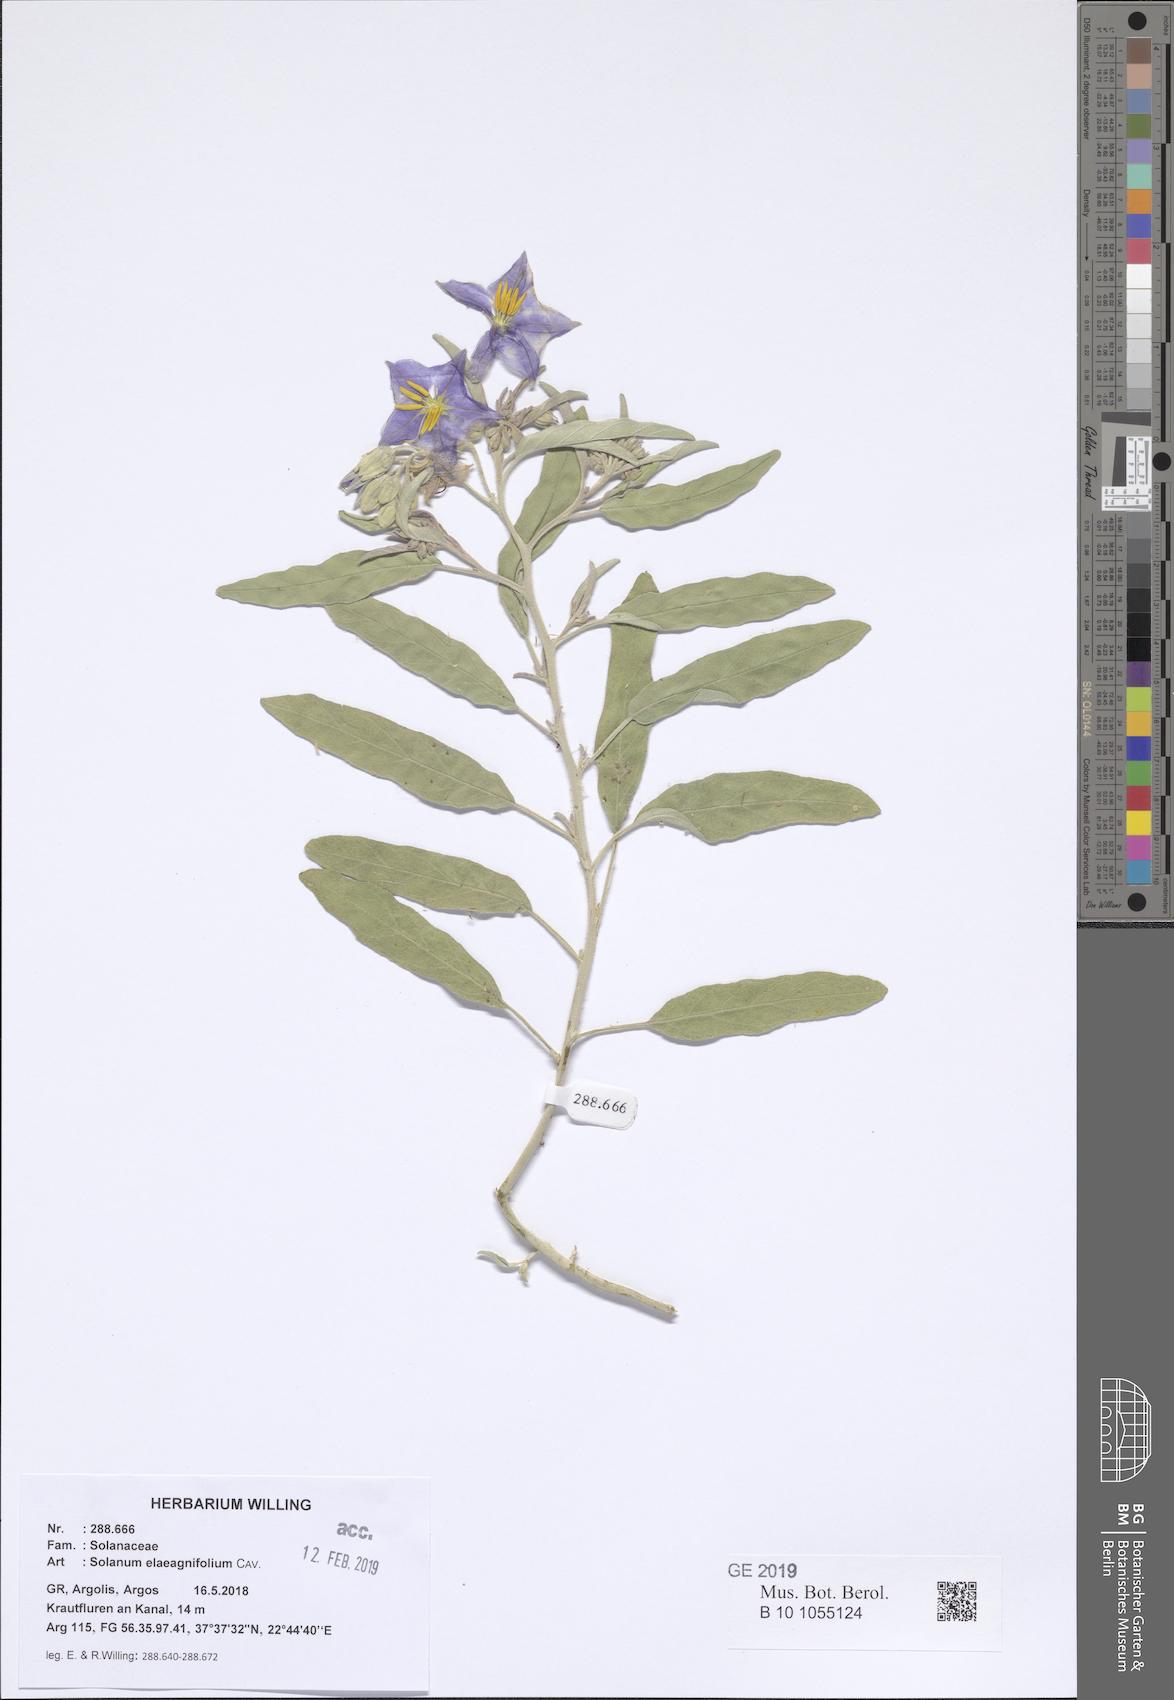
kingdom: Plantae
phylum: Tracheophyta
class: Magnoliopsida
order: Solanales
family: Solanaceae
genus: Solanum
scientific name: Solanum elaeagnifolium
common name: Silverleaf nightshade
